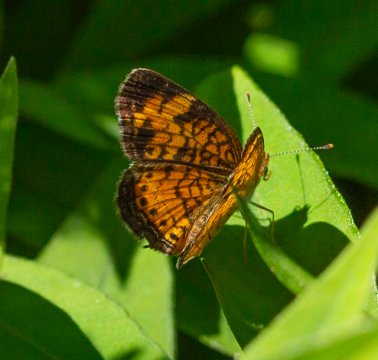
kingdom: Animalia
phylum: Arthropoda
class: Insecta
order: Lepidoptera
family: Nymphalidae
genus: Phyciodes
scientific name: Phyciodes tharos
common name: Northern Crescent
